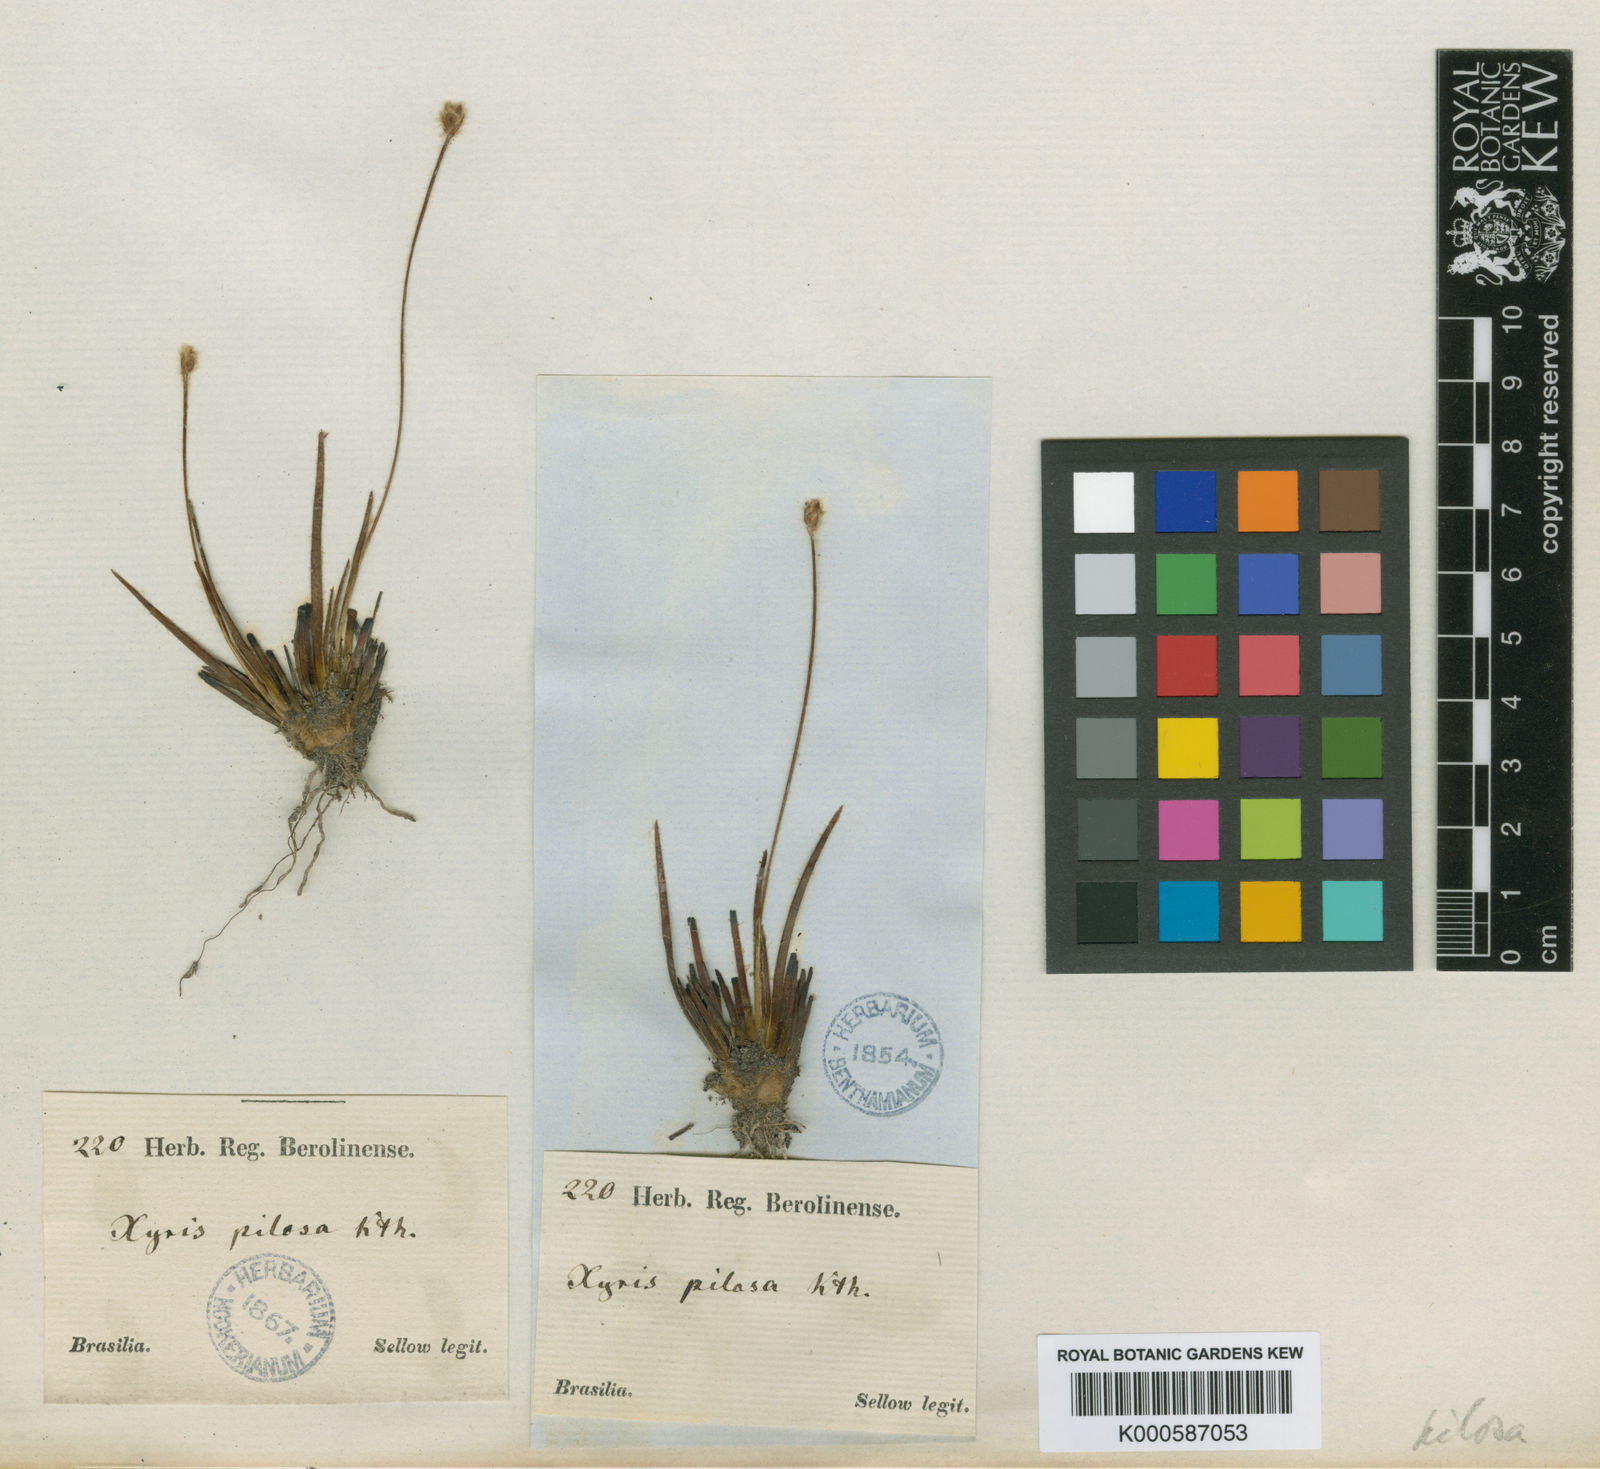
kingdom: Plantae
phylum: Tracheophyta
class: Liliopsida
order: Poales
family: Xyridaceae
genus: Xyris
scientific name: Xyris pilosa
